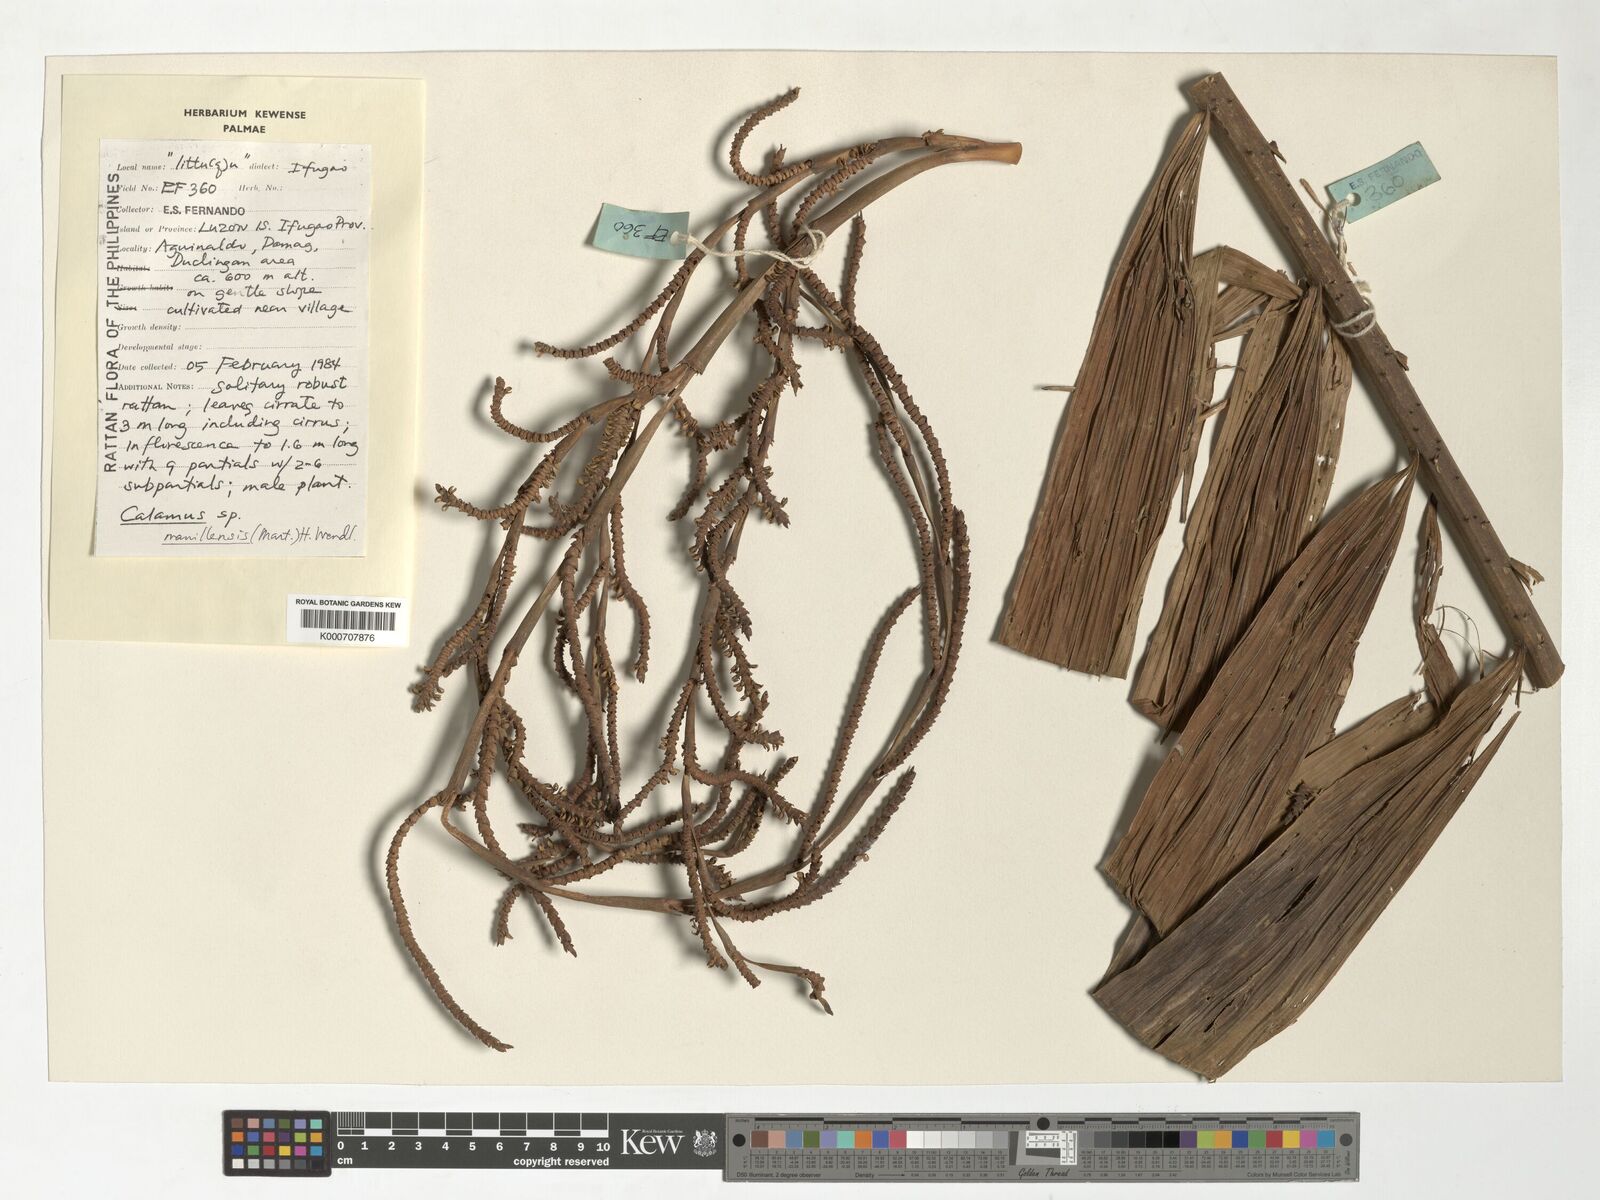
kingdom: Plantae
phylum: Tracheophyta
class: Liliopsida
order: Arecales
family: Arecaceae
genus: Calamus
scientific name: Calamus manillensis
